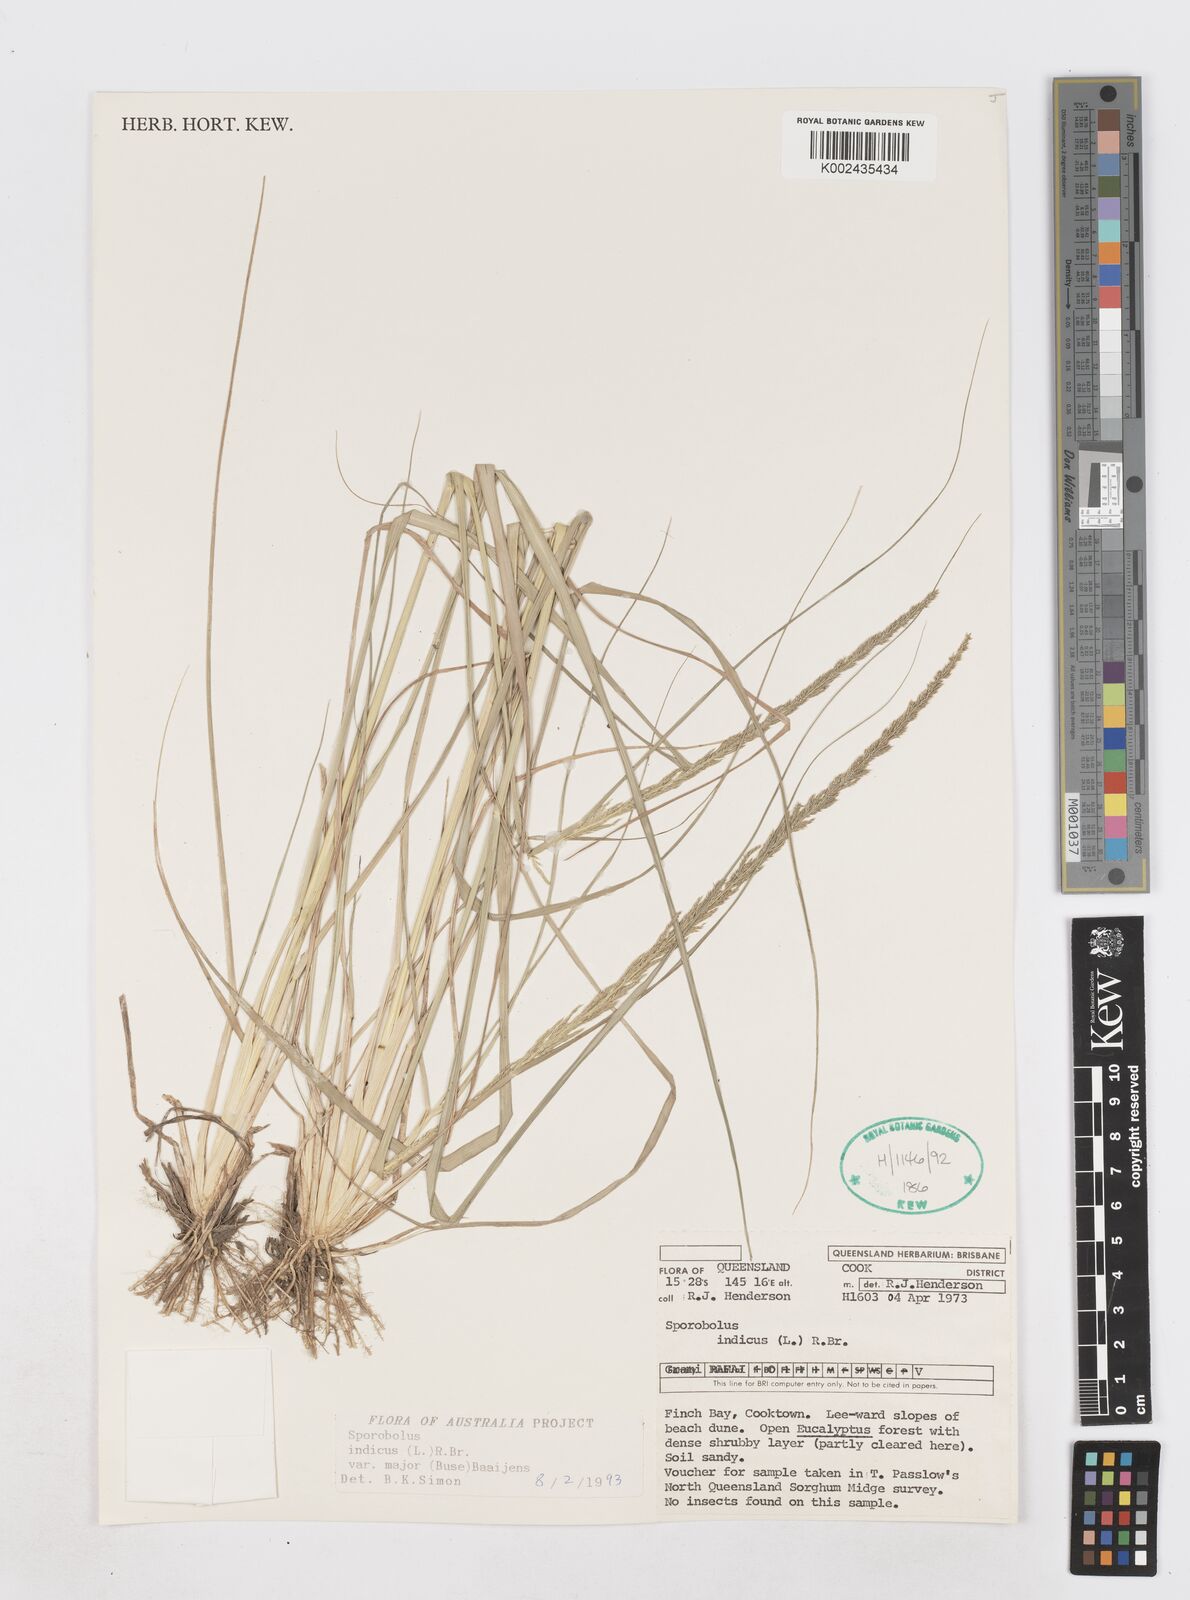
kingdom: Plantae
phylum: Tracheophyta
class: Liliopsida
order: Poales
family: Poaceae
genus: Sporobolus
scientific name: Sporobolus fertilis
